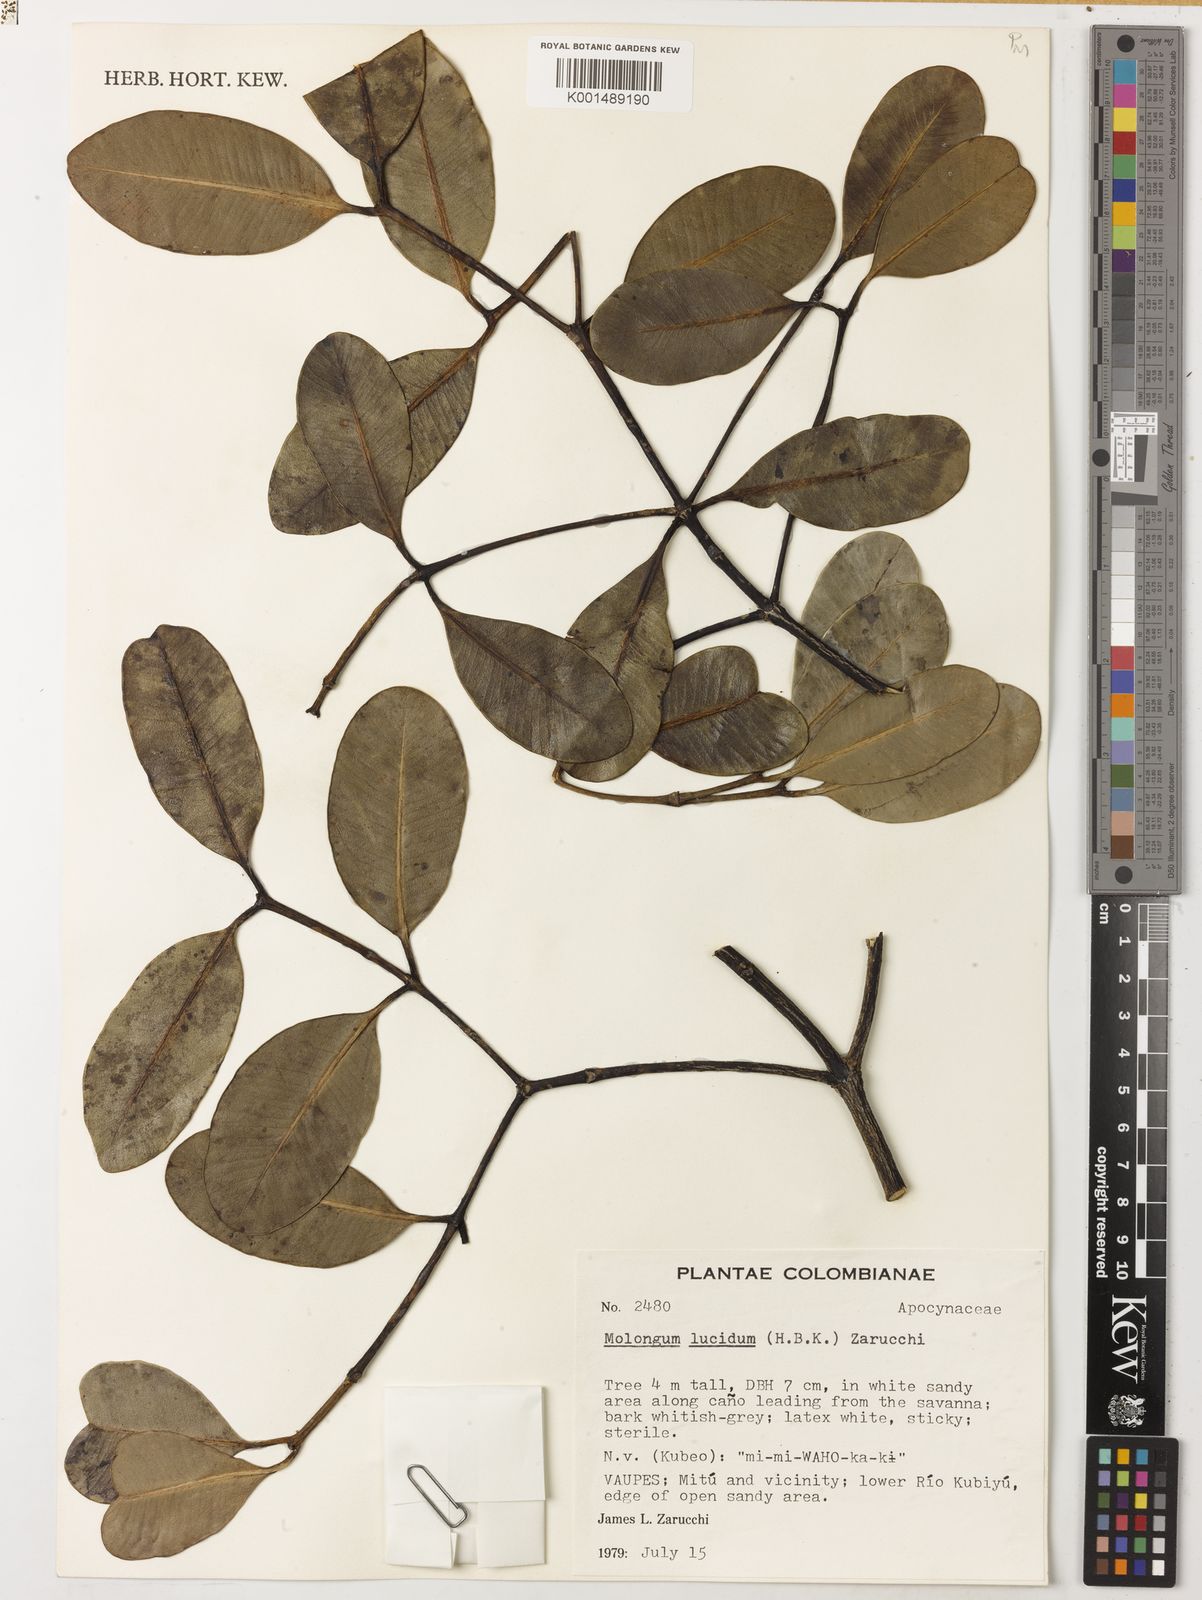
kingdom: Plantae
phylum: Tracheophyta
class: Magnoliopsida
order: Gentianales
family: Apocynaceae
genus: Molongum
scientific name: Molongum lucidum
